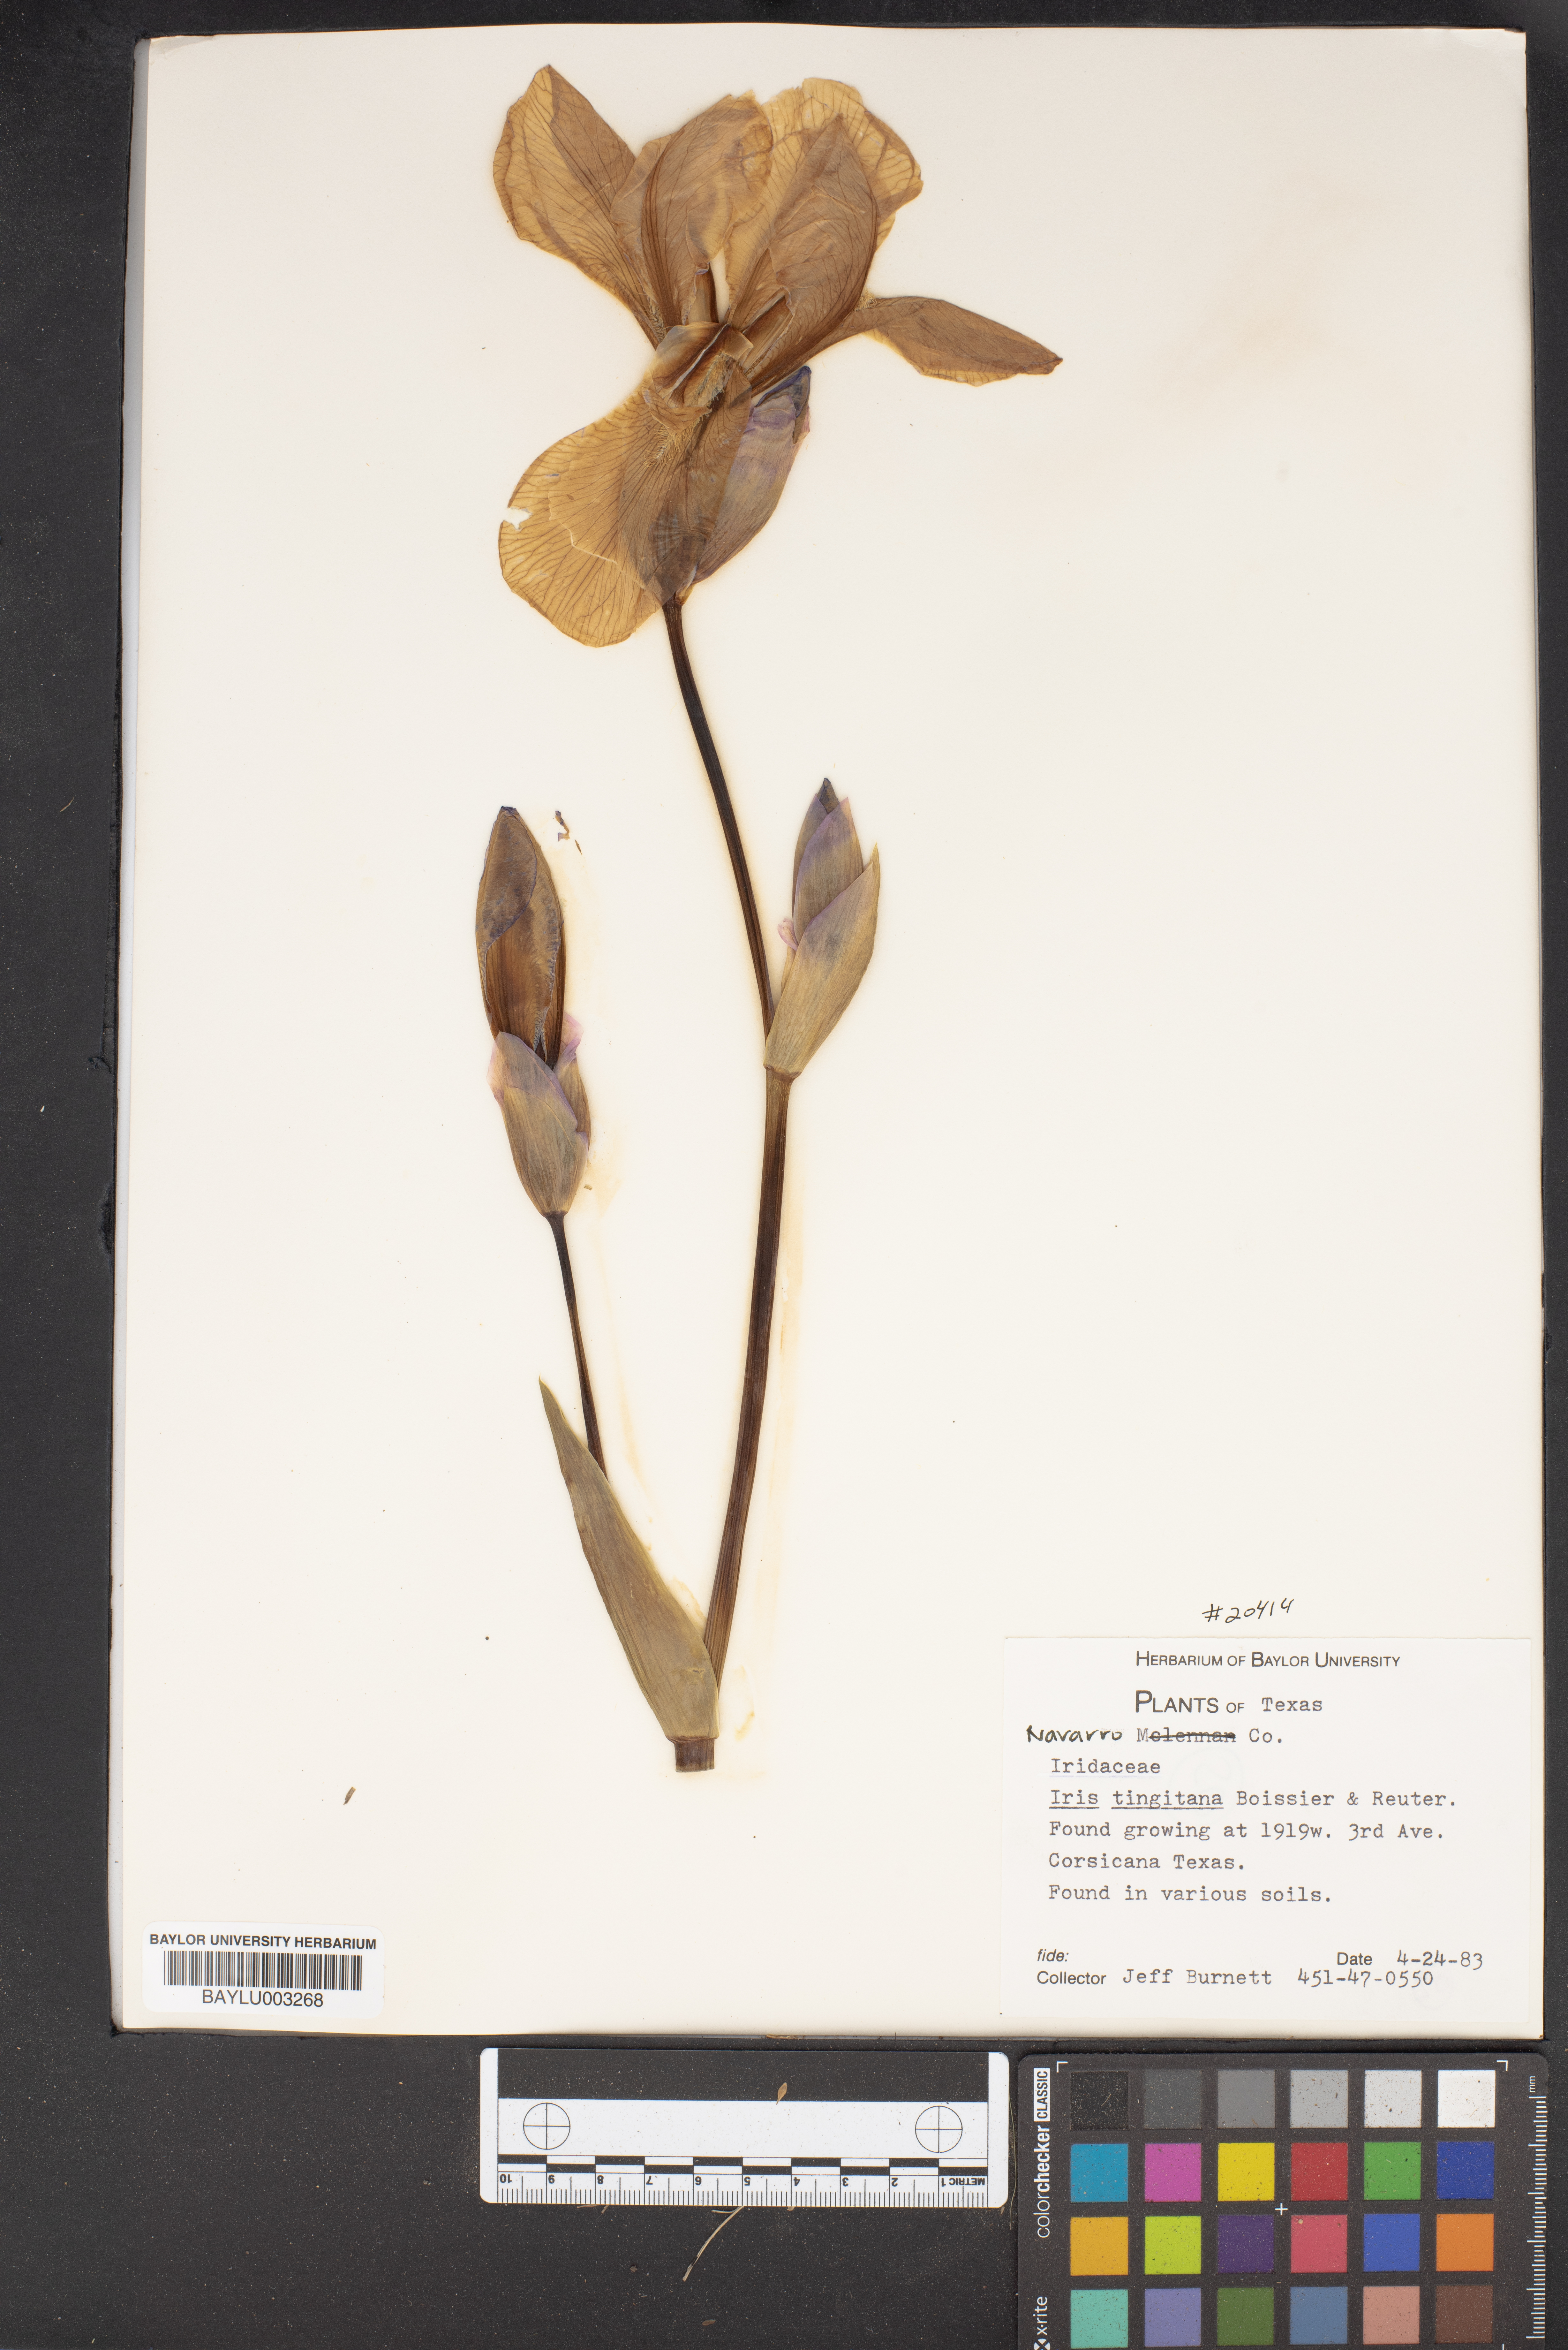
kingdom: Plantae
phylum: Tracheophyta
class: Liliopsida
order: Asparagales
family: Iridaceae
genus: Iris
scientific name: Iris tingitana
